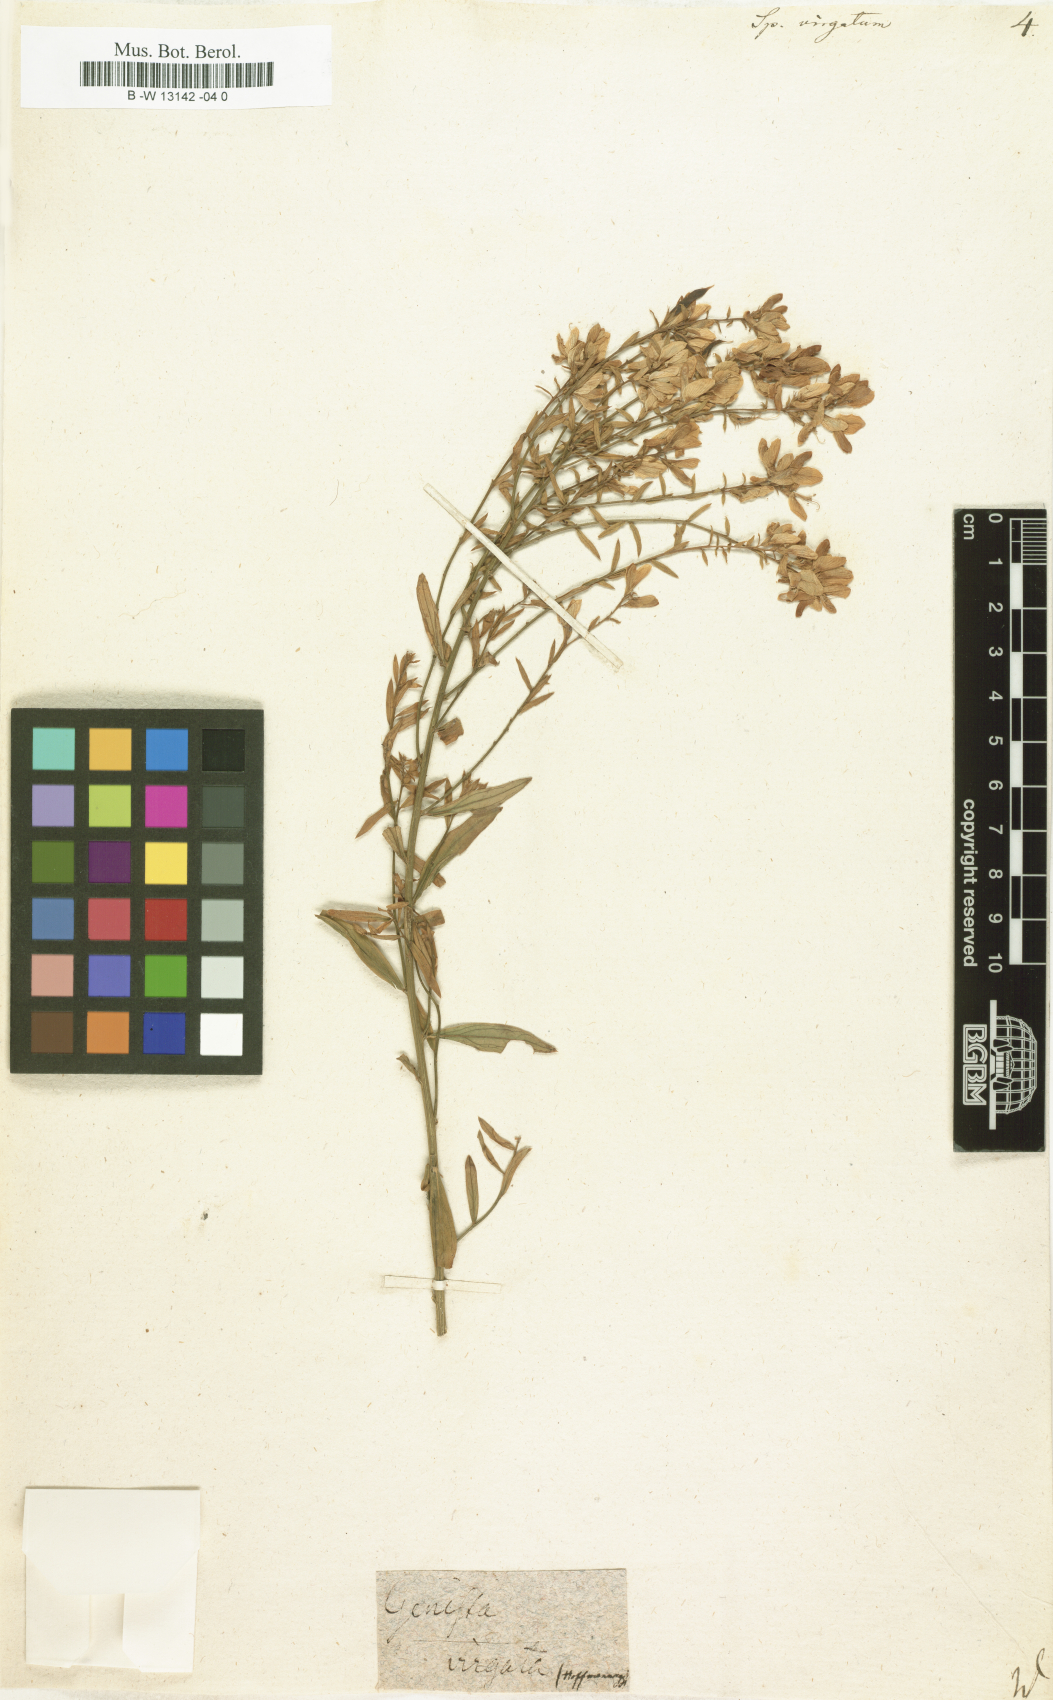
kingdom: Plantae
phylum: Tracheophyta
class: Magnoliopsida
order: Fabales
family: Fabaceae
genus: Genista
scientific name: Genista tenera
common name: Madeira broom
